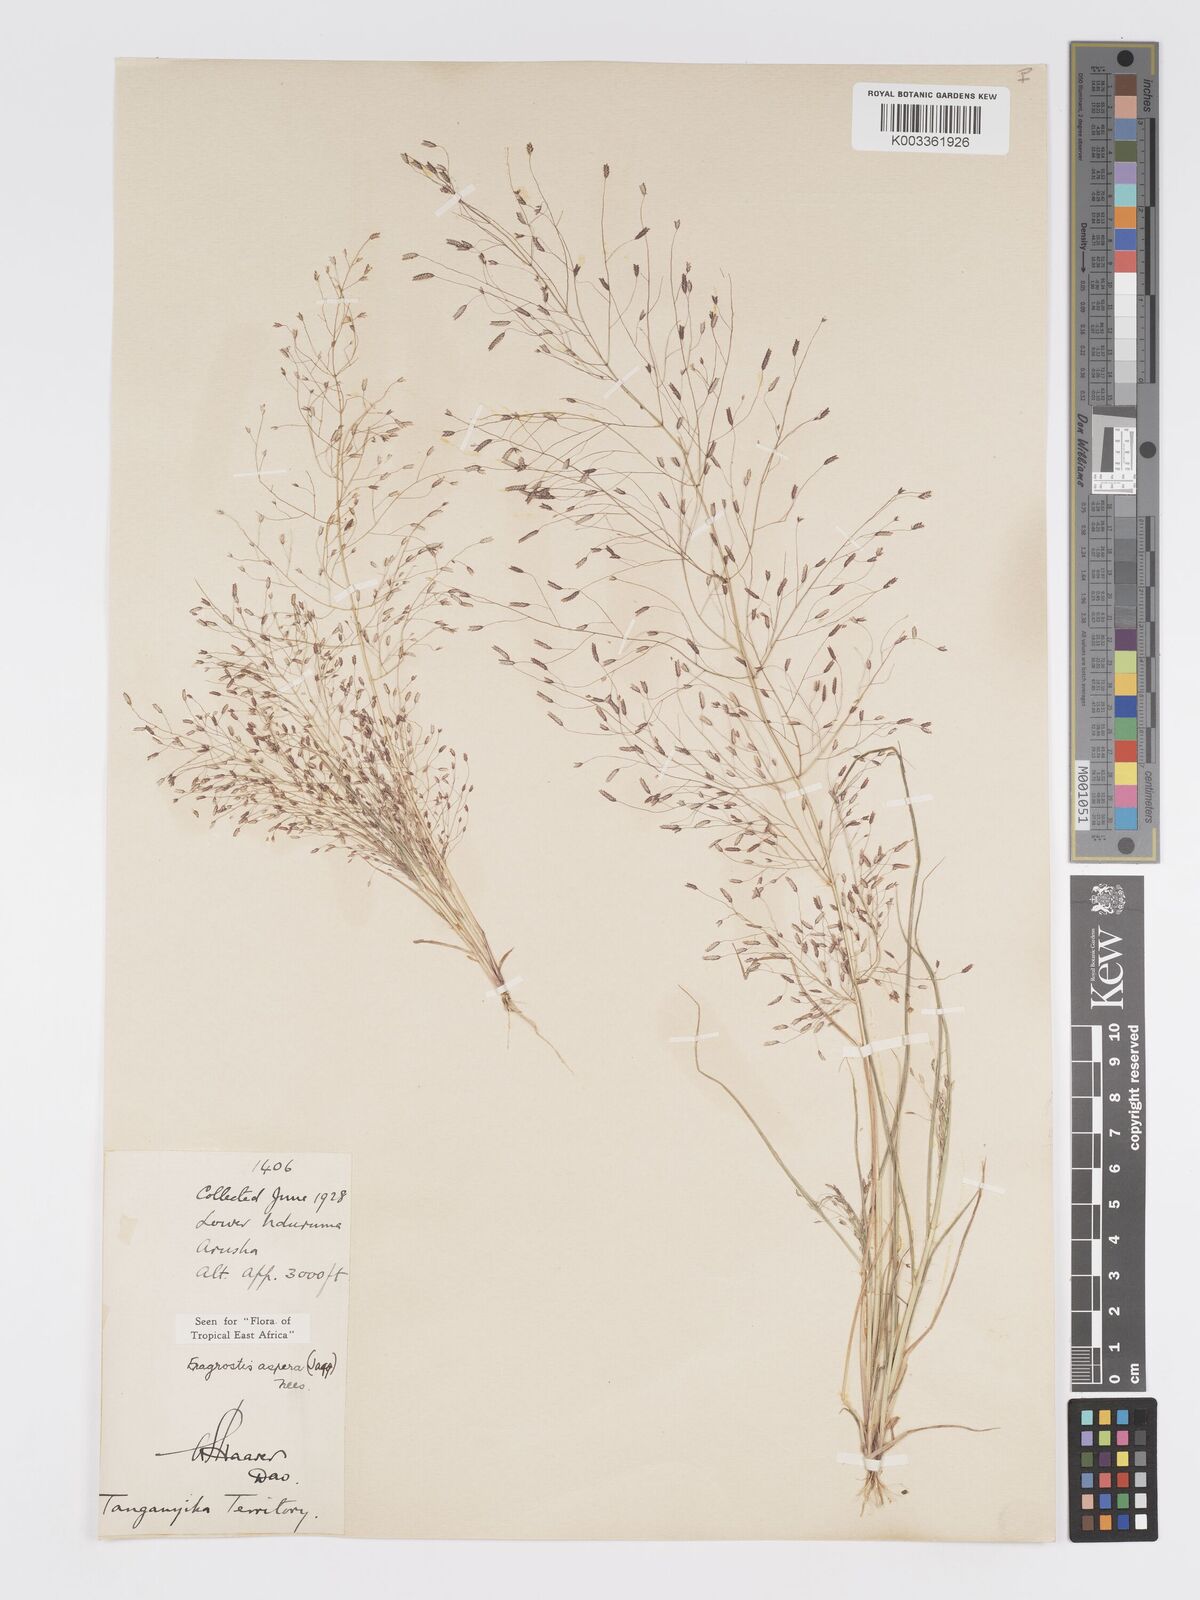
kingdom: Plantae
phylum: Tracheophyta
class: Liliopsida
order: Poales
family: Poaceae
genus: Eragrostis
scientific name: Eragrostis aspera
